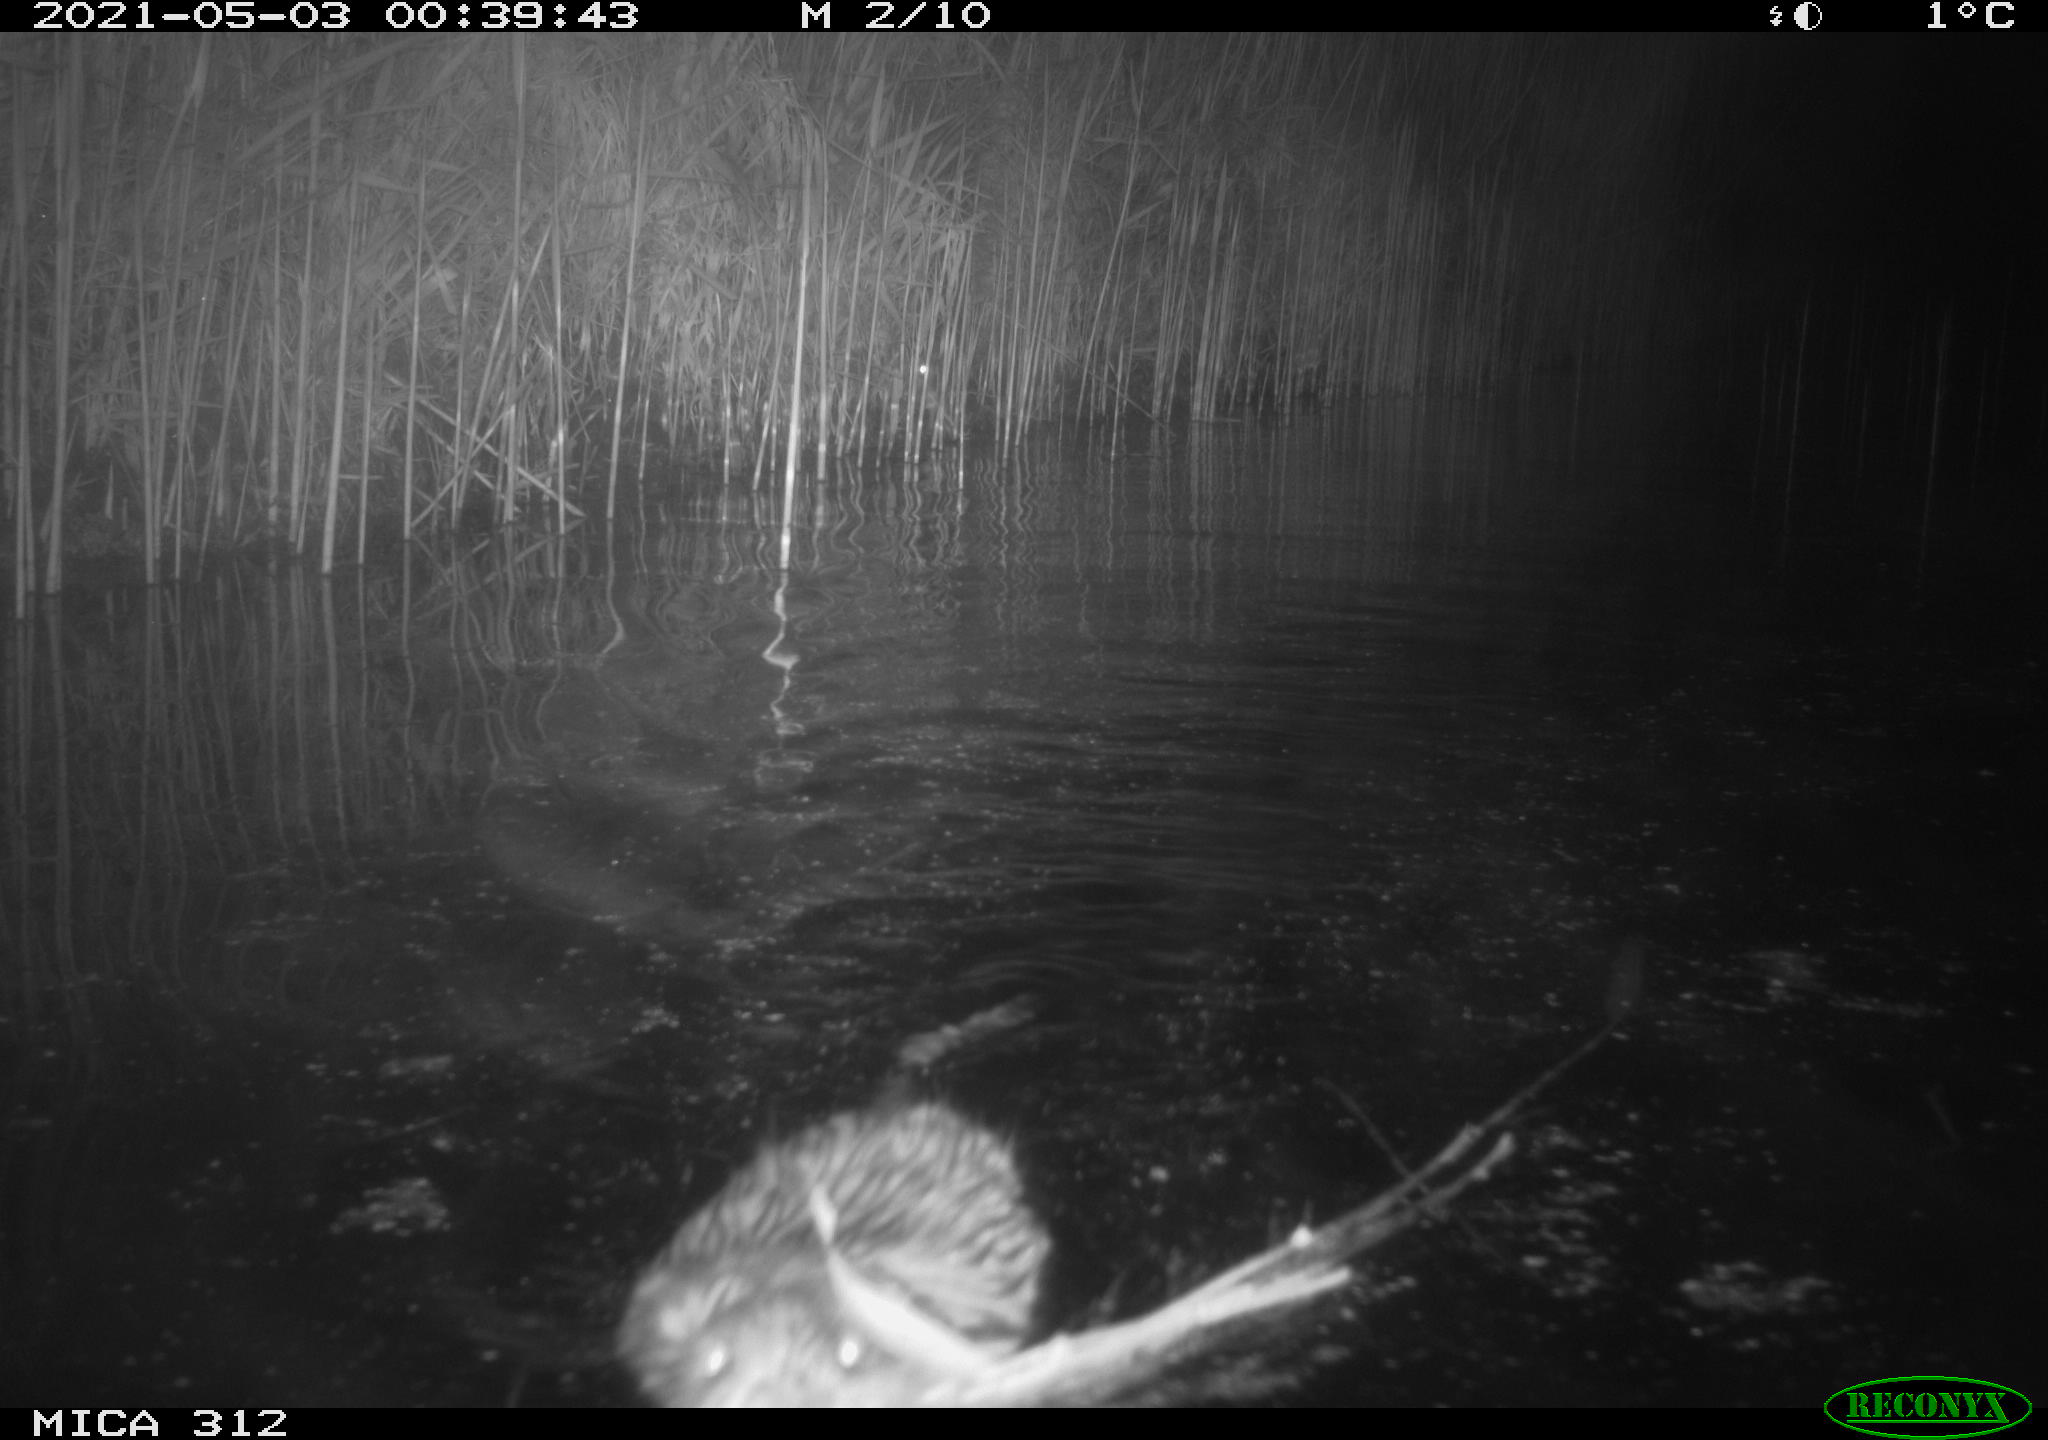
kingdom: Animalia
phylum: Chordata
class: Mammalia
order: Rodentia
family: Cricetidae
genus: Ondatra
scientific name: Ondatra zibethicus
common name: Muskrat
